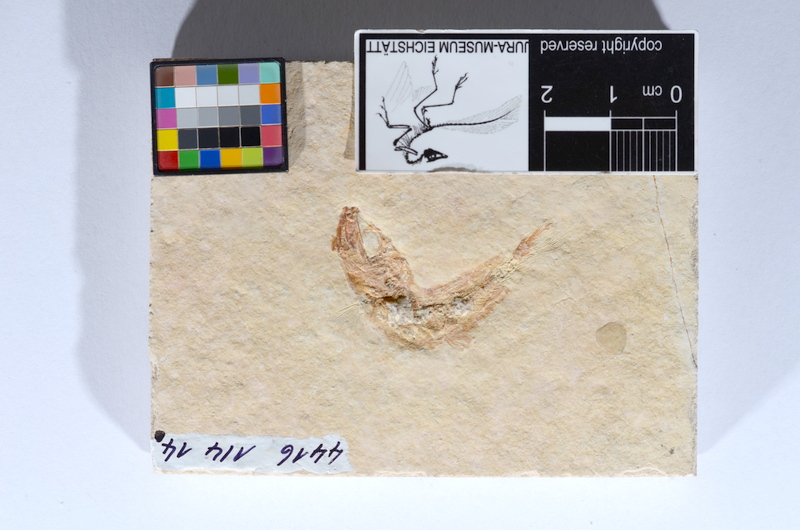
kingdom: Animalia
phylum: Chordata
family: Ascalaboidae
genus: Tharsis
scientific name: Tharsis dubius
